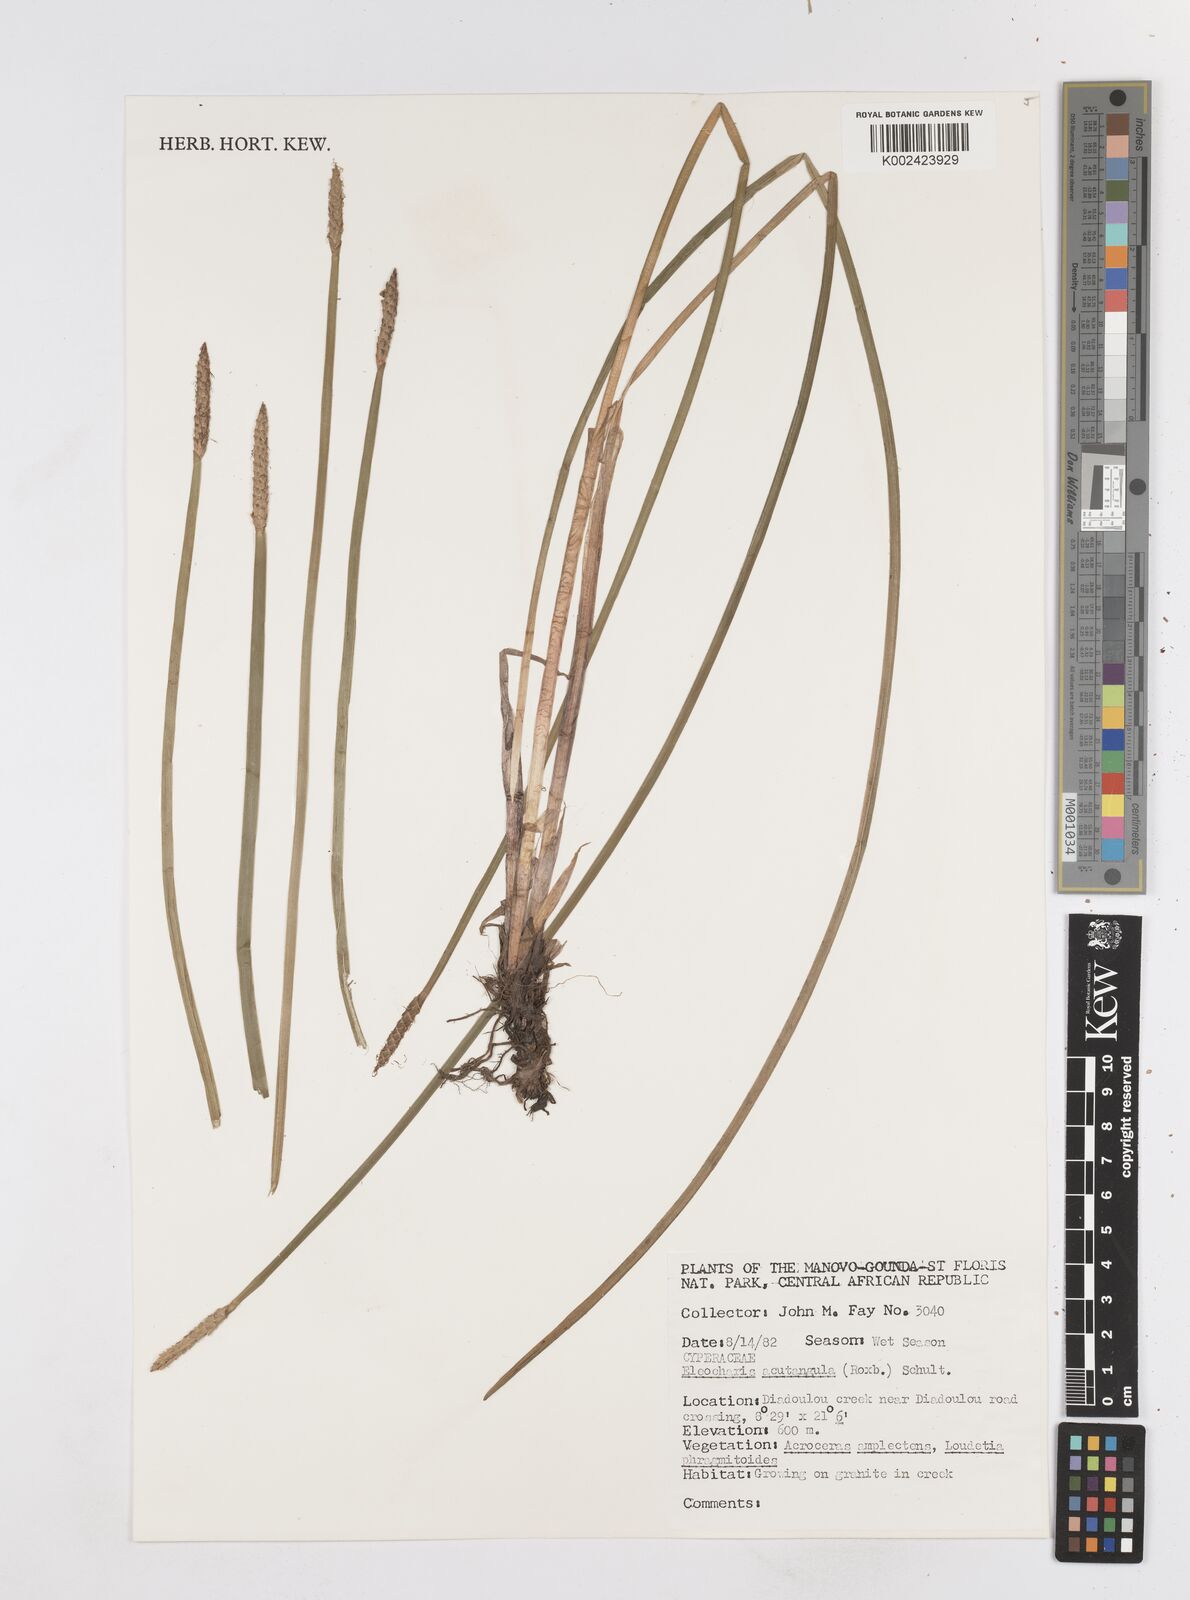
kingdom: Plantae
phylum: Tracheophyta
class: Liliopsida
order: Poales
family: Cyperaceae
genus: Eleocharis
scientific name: Eleocharis acutangula
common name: Acute spikerush
